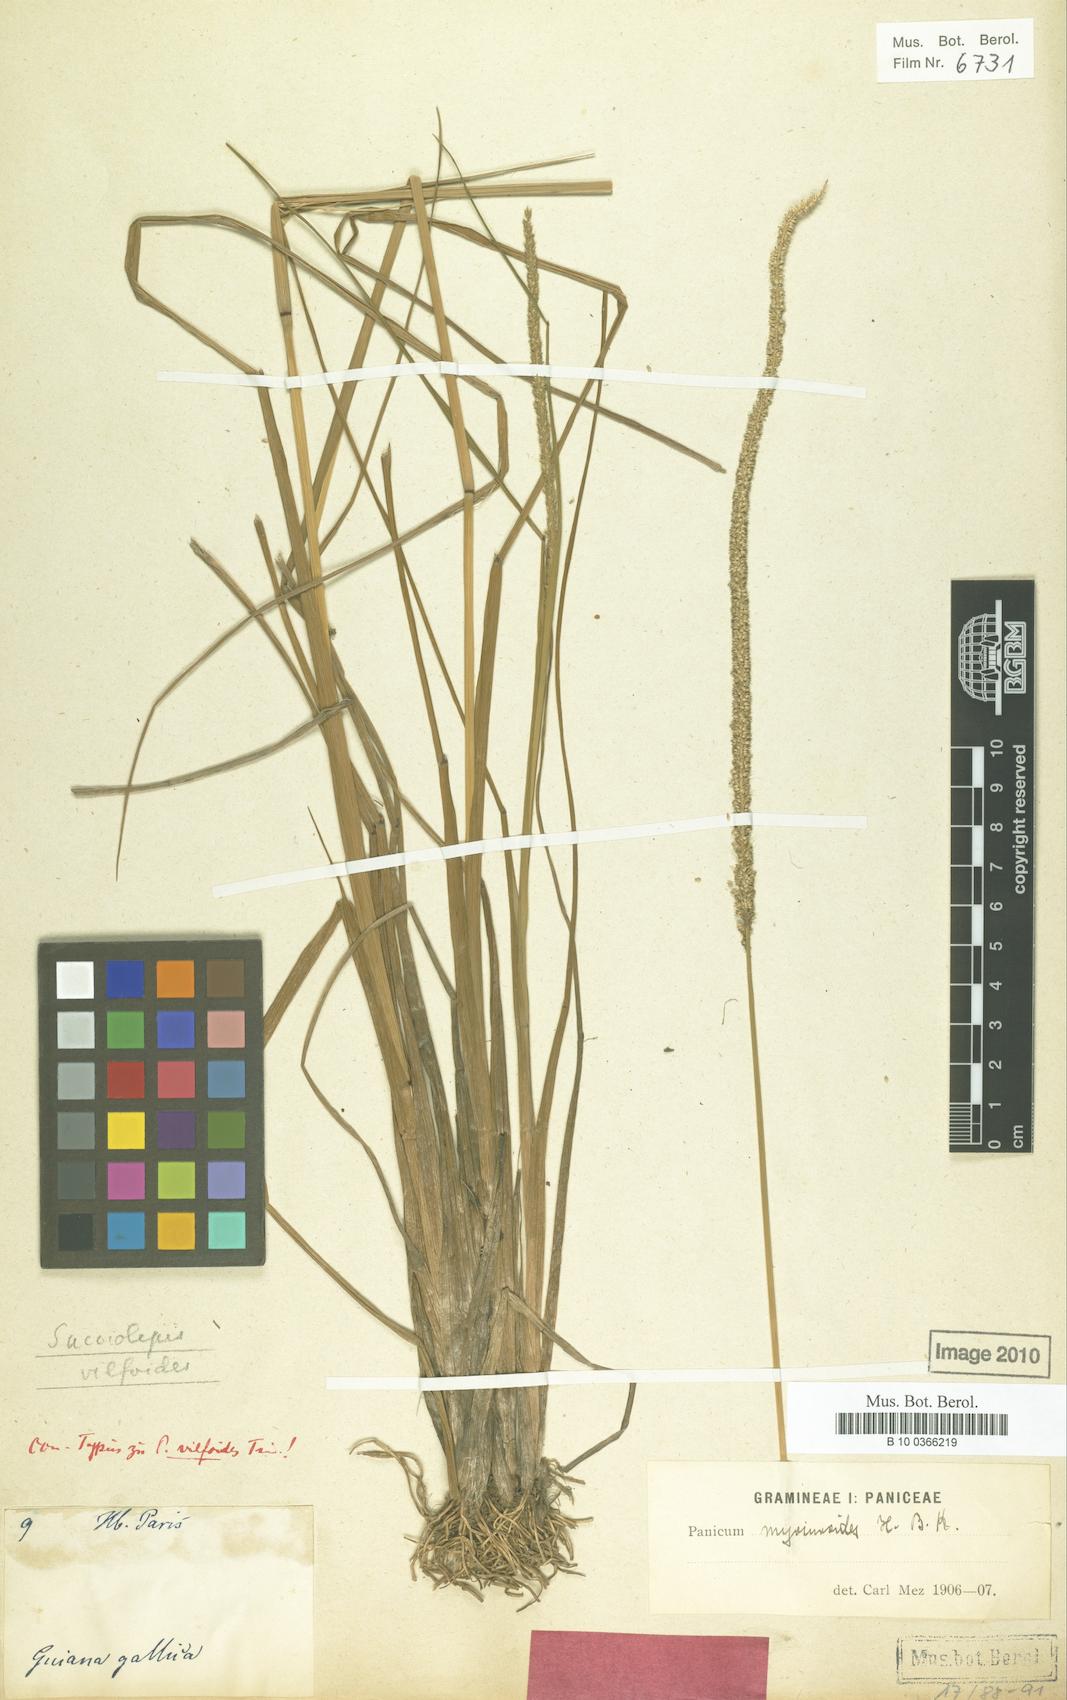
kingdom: Plantae
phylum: Tracheophyta
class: Liliopsida
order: Poales
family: Poaceae
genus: Panicum
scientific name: Panicum vilfoides
